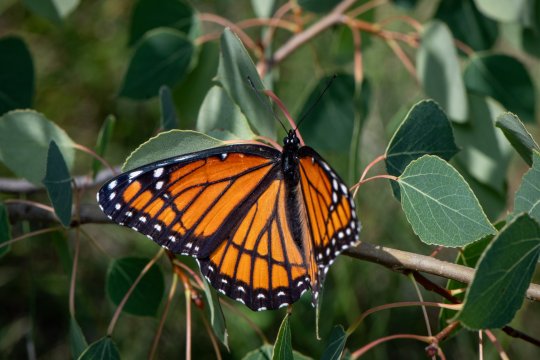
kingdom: Animalia
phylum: Arthropoda
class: Insecta
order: Lepidoptera
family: Nymphalidae
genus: Limenitis
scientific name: Limenitis archippus
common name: Viceroy
